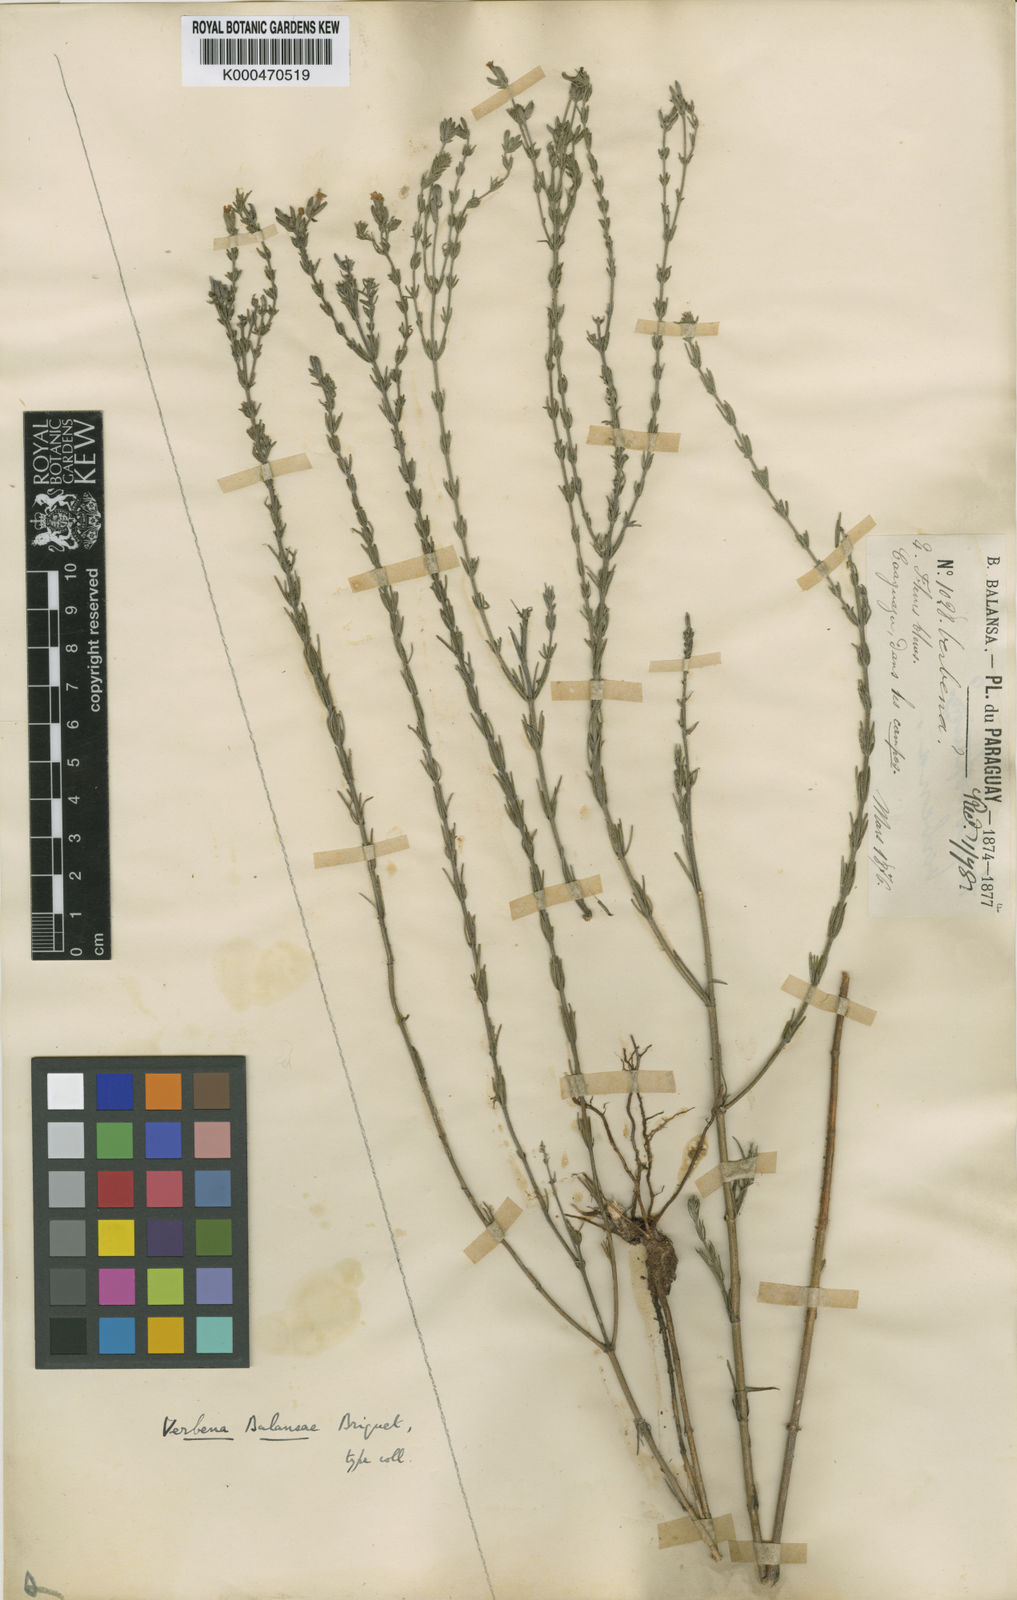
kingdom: Plantae
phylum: Tracheophyta
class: Magnoliopsida
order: Lamiales
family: Verbenaceae
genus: Verbena
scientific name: Verbena balansae
